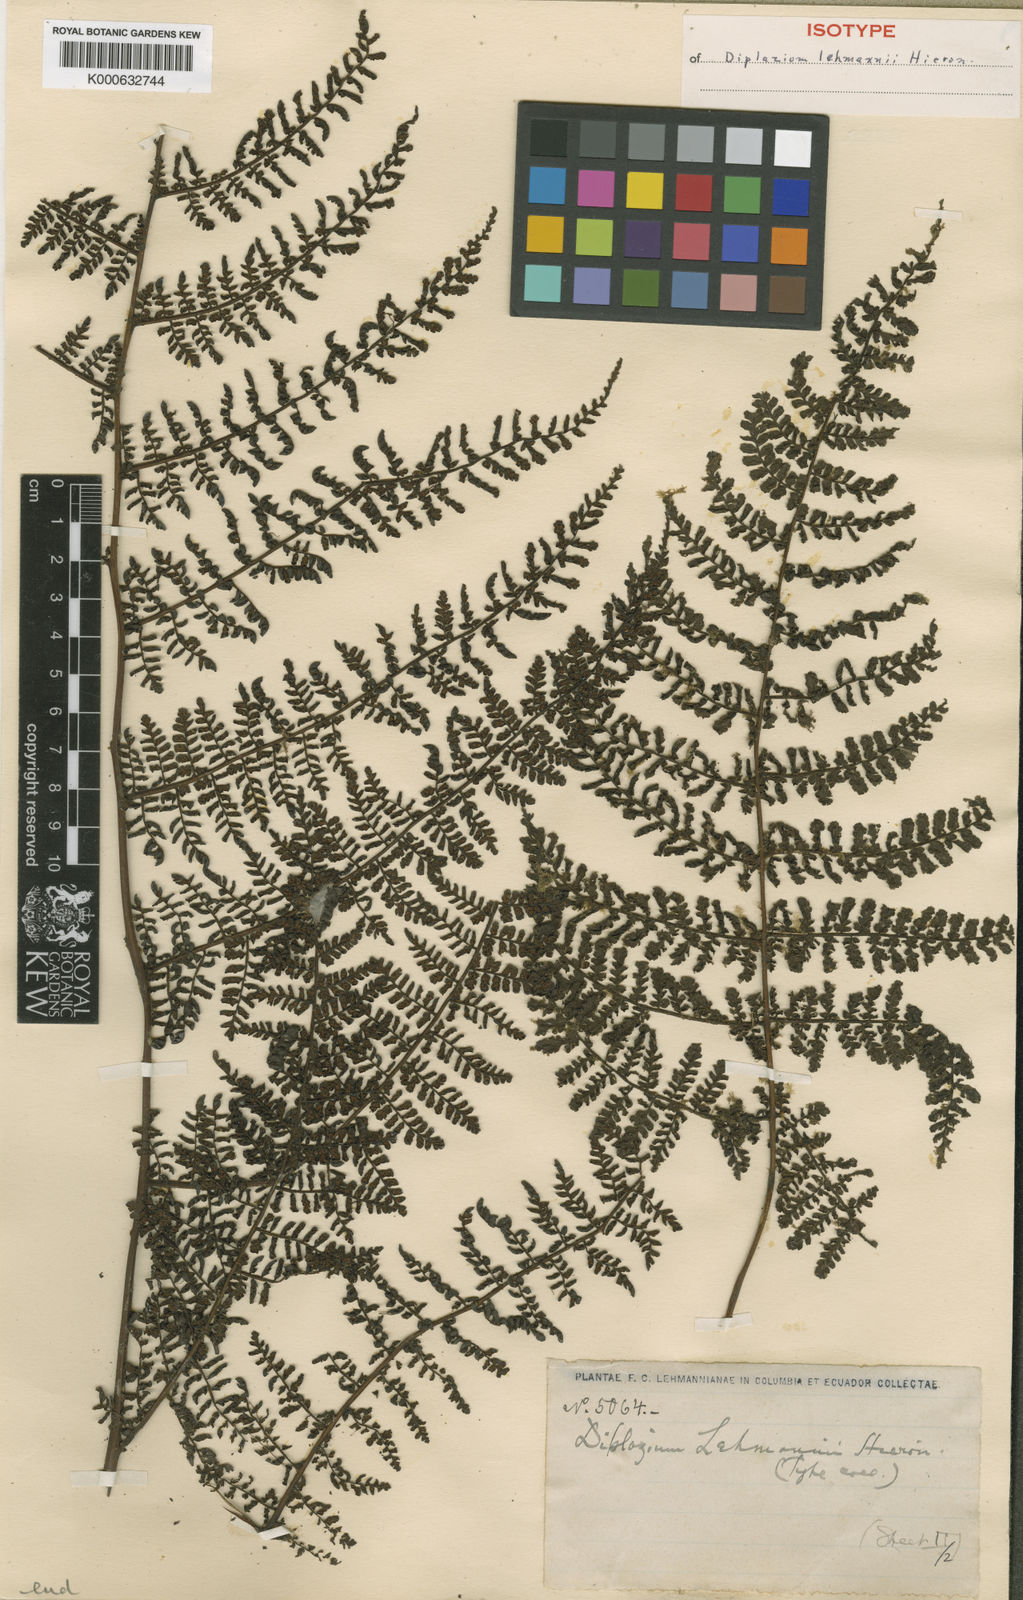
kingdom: Plantae
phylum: Tracheophyta
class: Polypodiopsida
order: Polypodiales
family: Athyriaceae
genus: Diplazium
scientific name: Diplazium alienum
